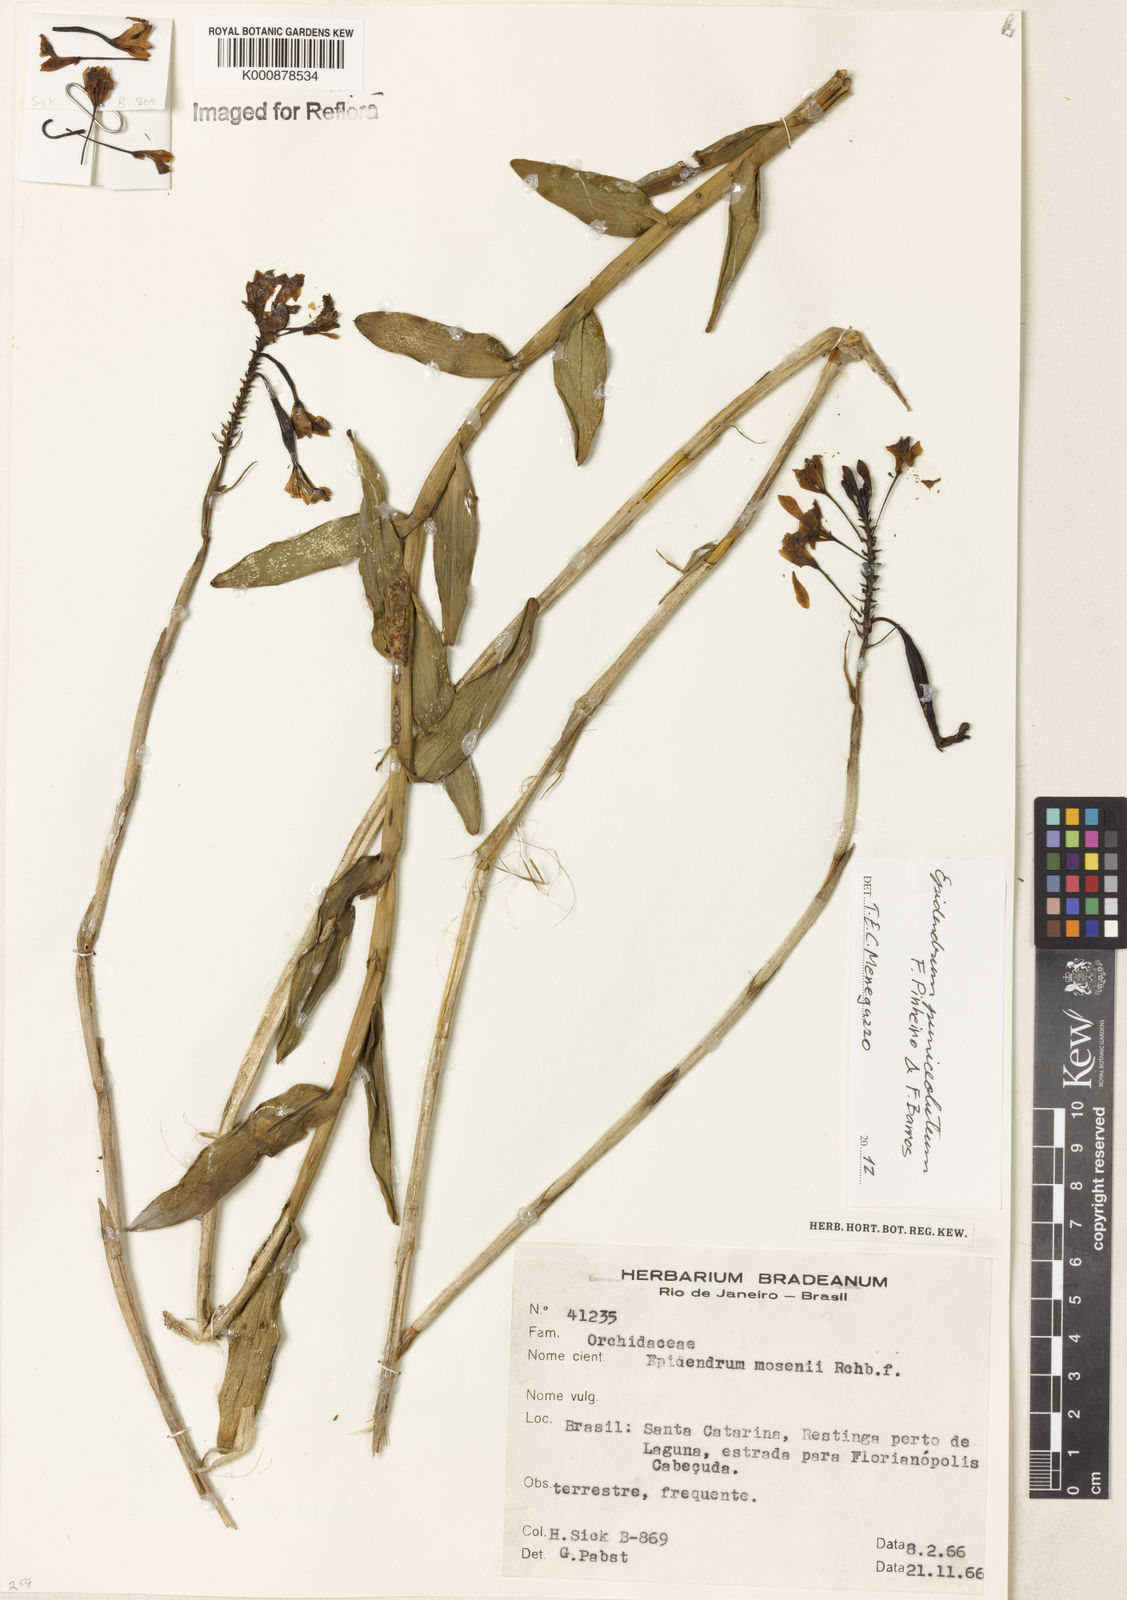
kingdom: Plantae
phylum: Tracheophyta
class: Liliopsida
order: Asparagales
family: Orchidaceae
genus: Epidendrum
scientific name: Epidendrum puniceoluteum
